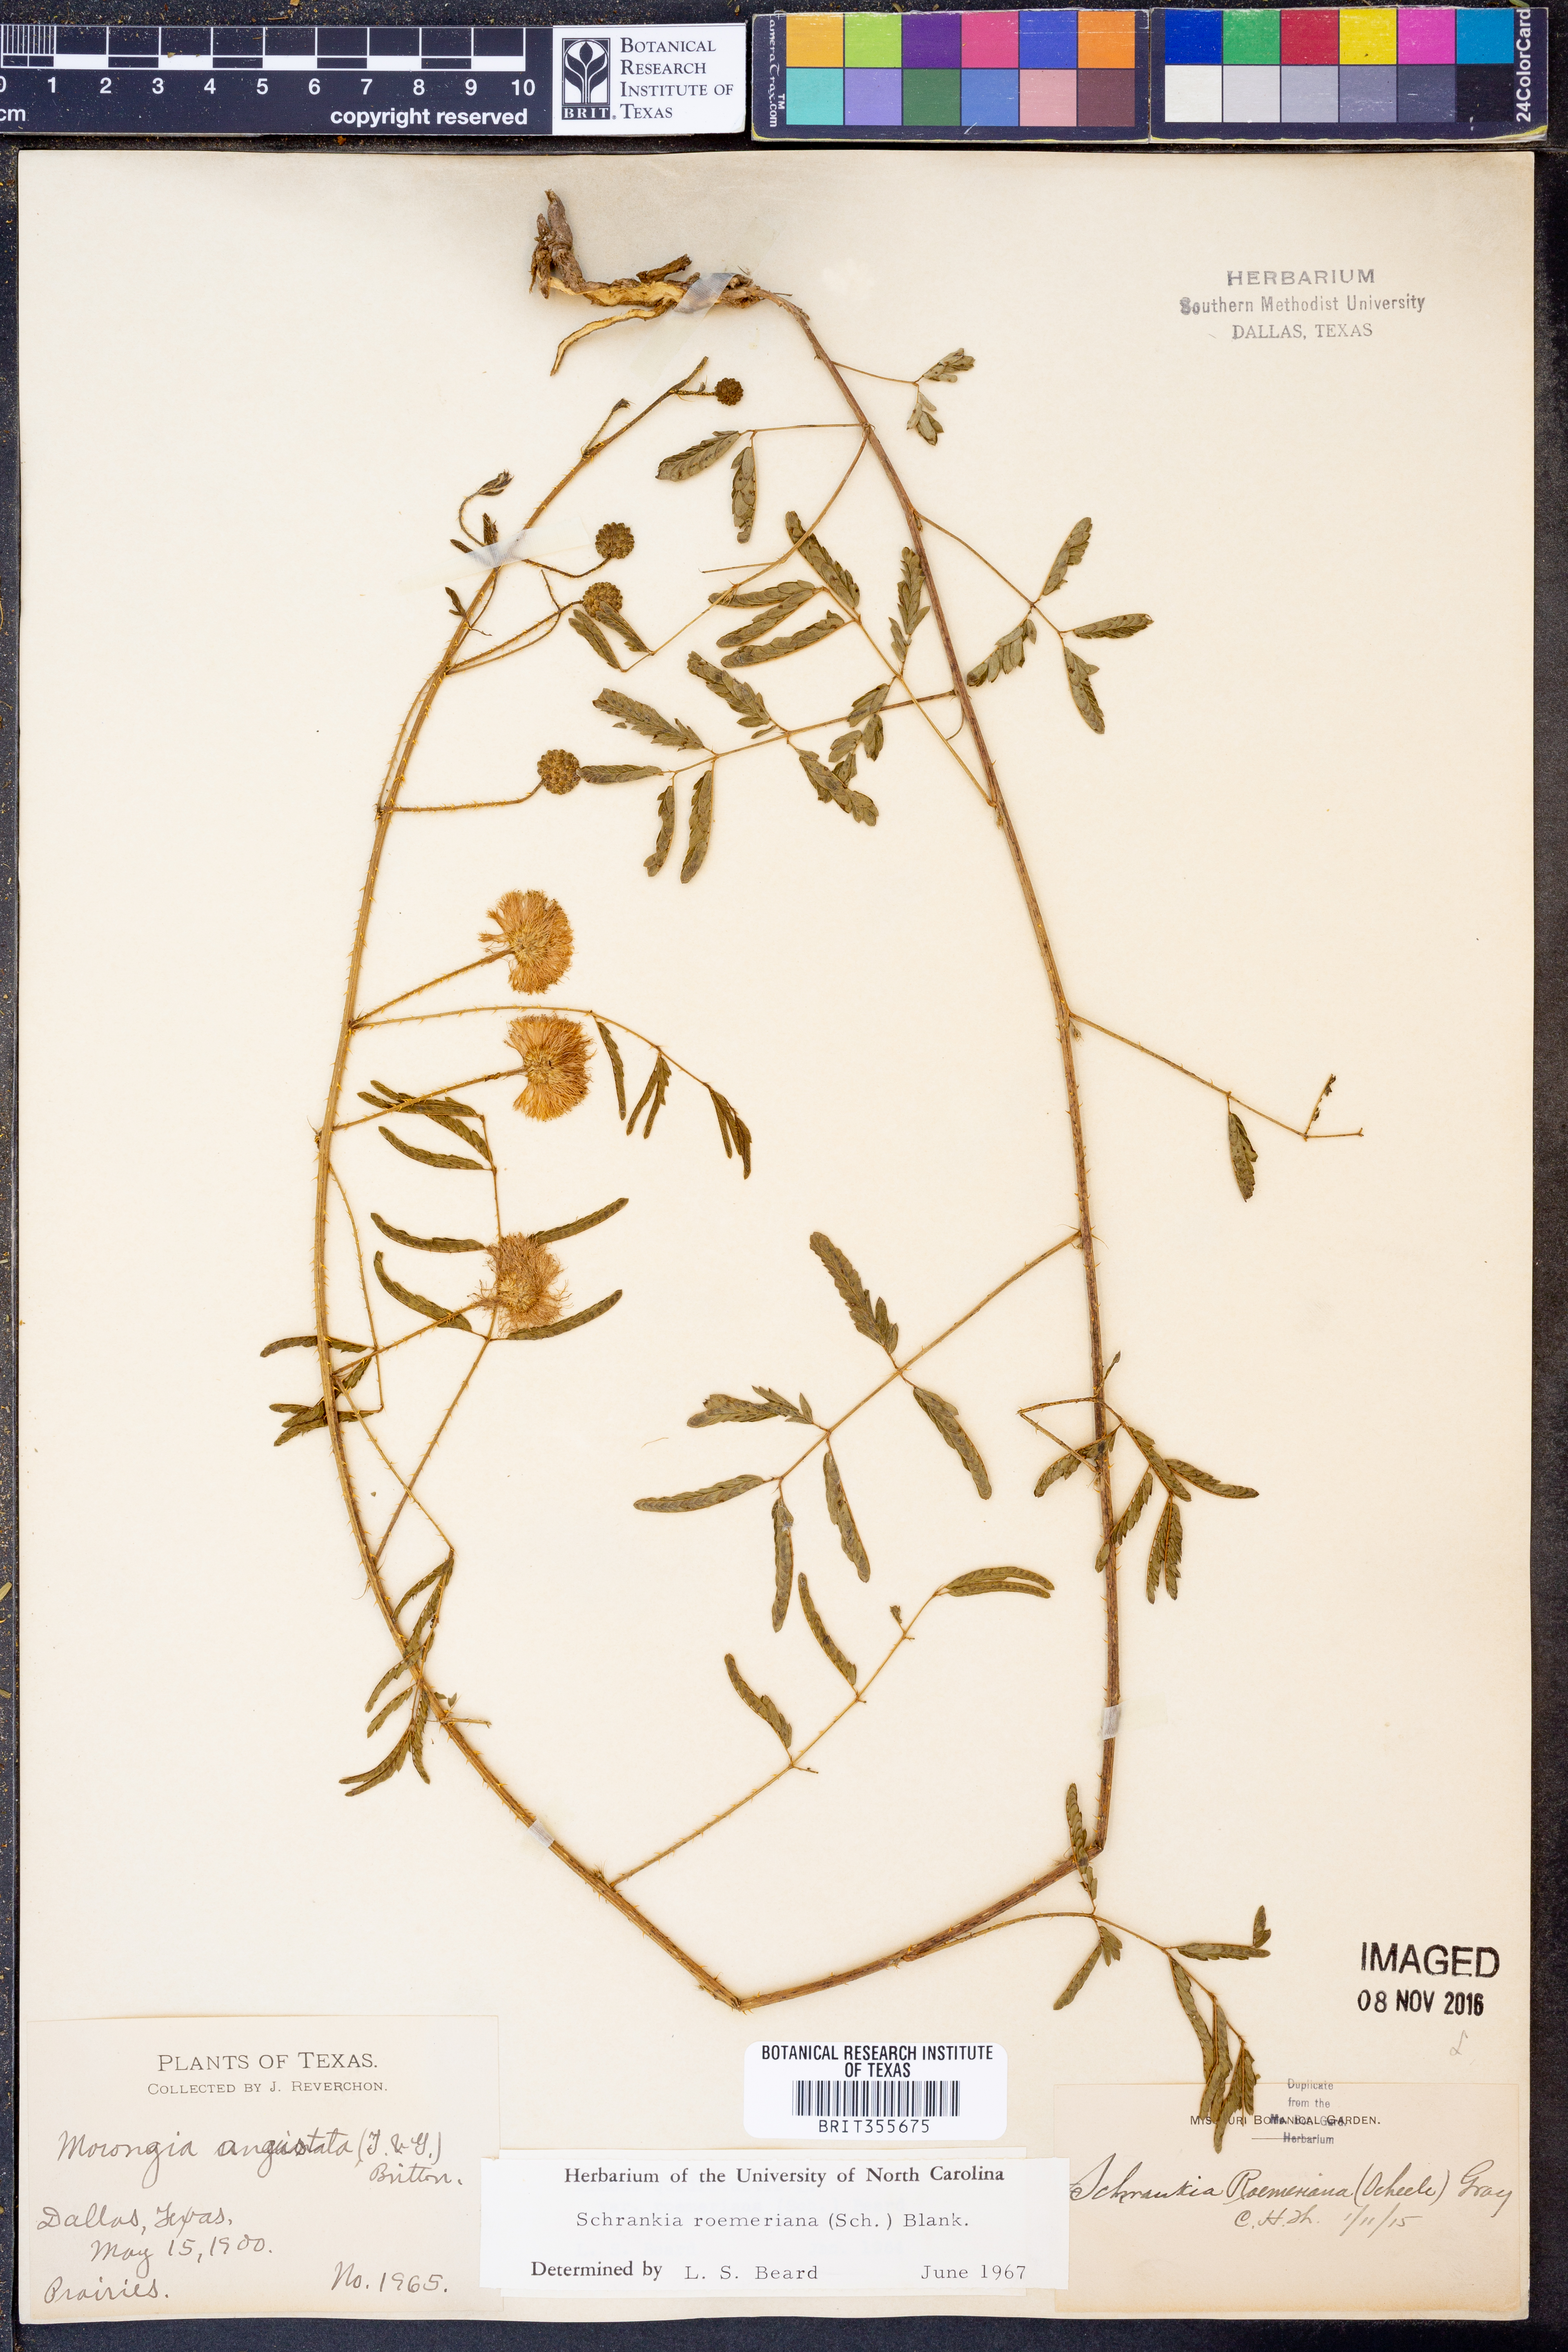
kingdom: Plantae
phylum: Tracheophyta
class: Magnoliopsida
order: Fabales
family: Fabaceae
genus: Mimosa
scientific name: Mimosa quadrivalvis
